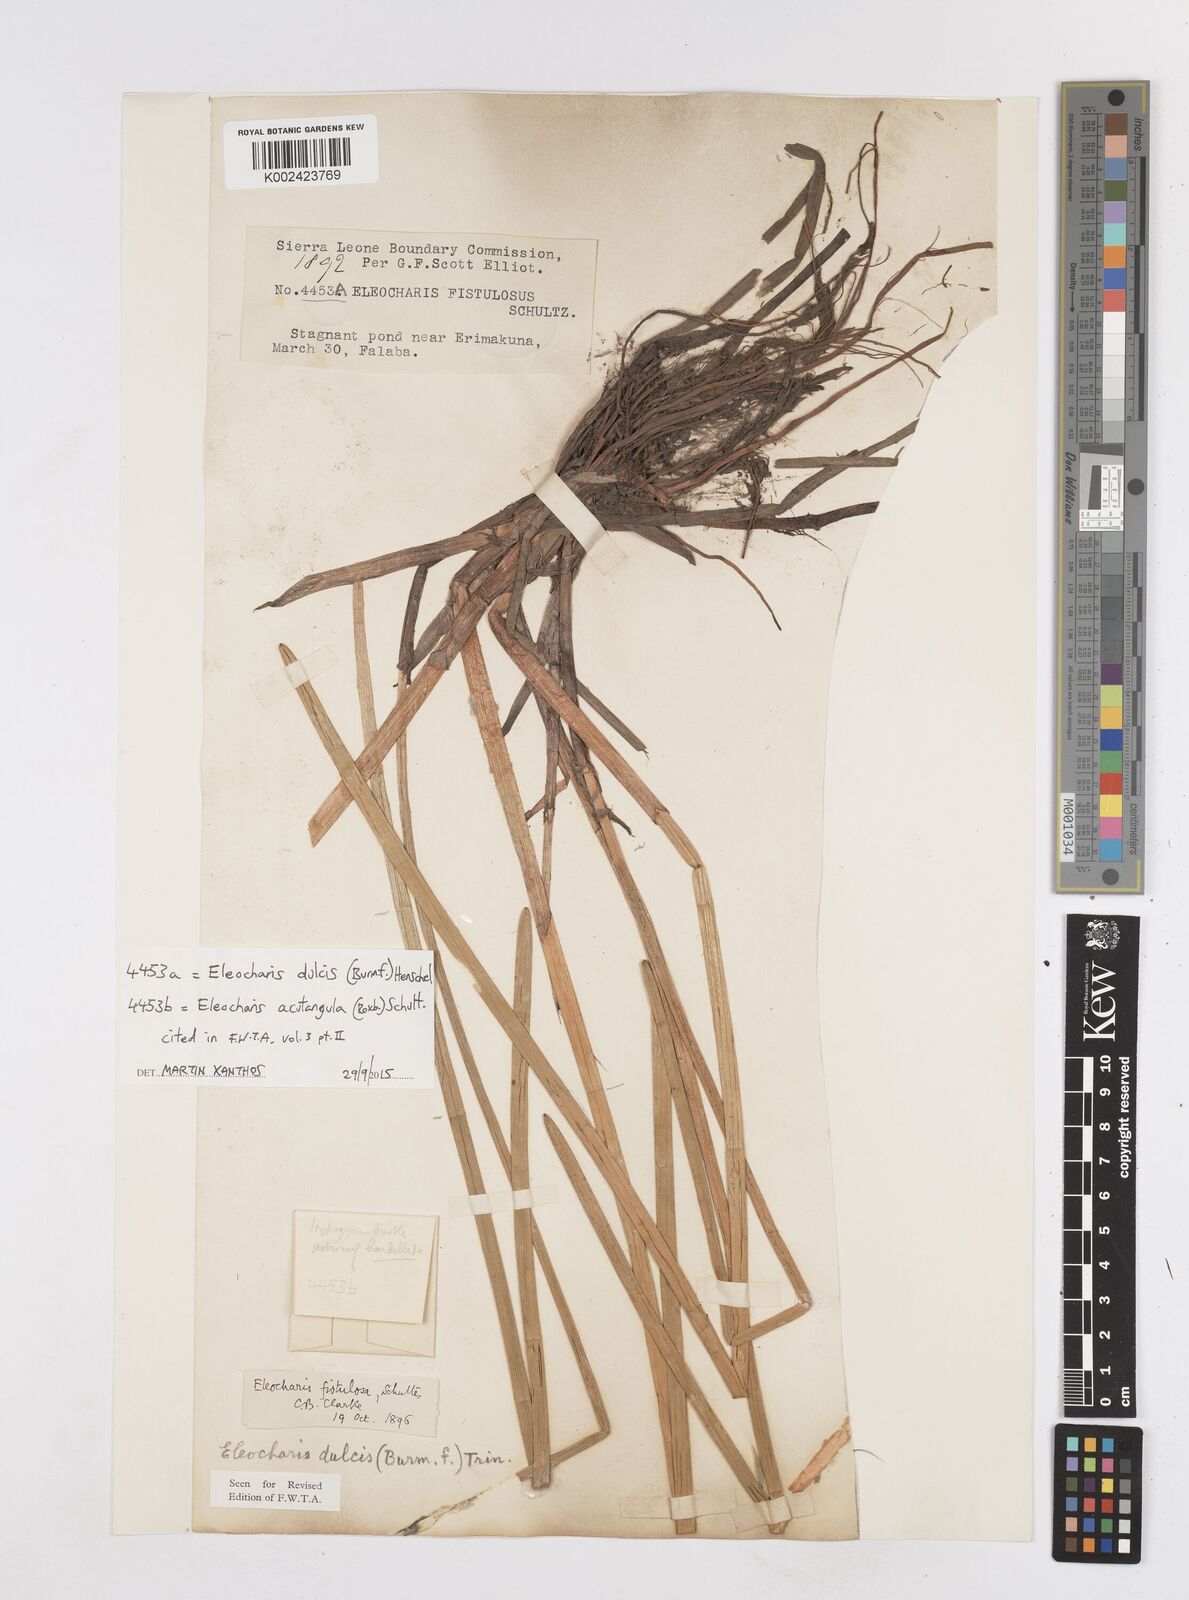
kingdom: Plantae
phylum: Tracheophyta
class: Liliopsida
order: Poales
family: Cyperaceae
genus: Eleocharis
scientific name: Eleocharis dulcis
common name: Chinese water chestnut
